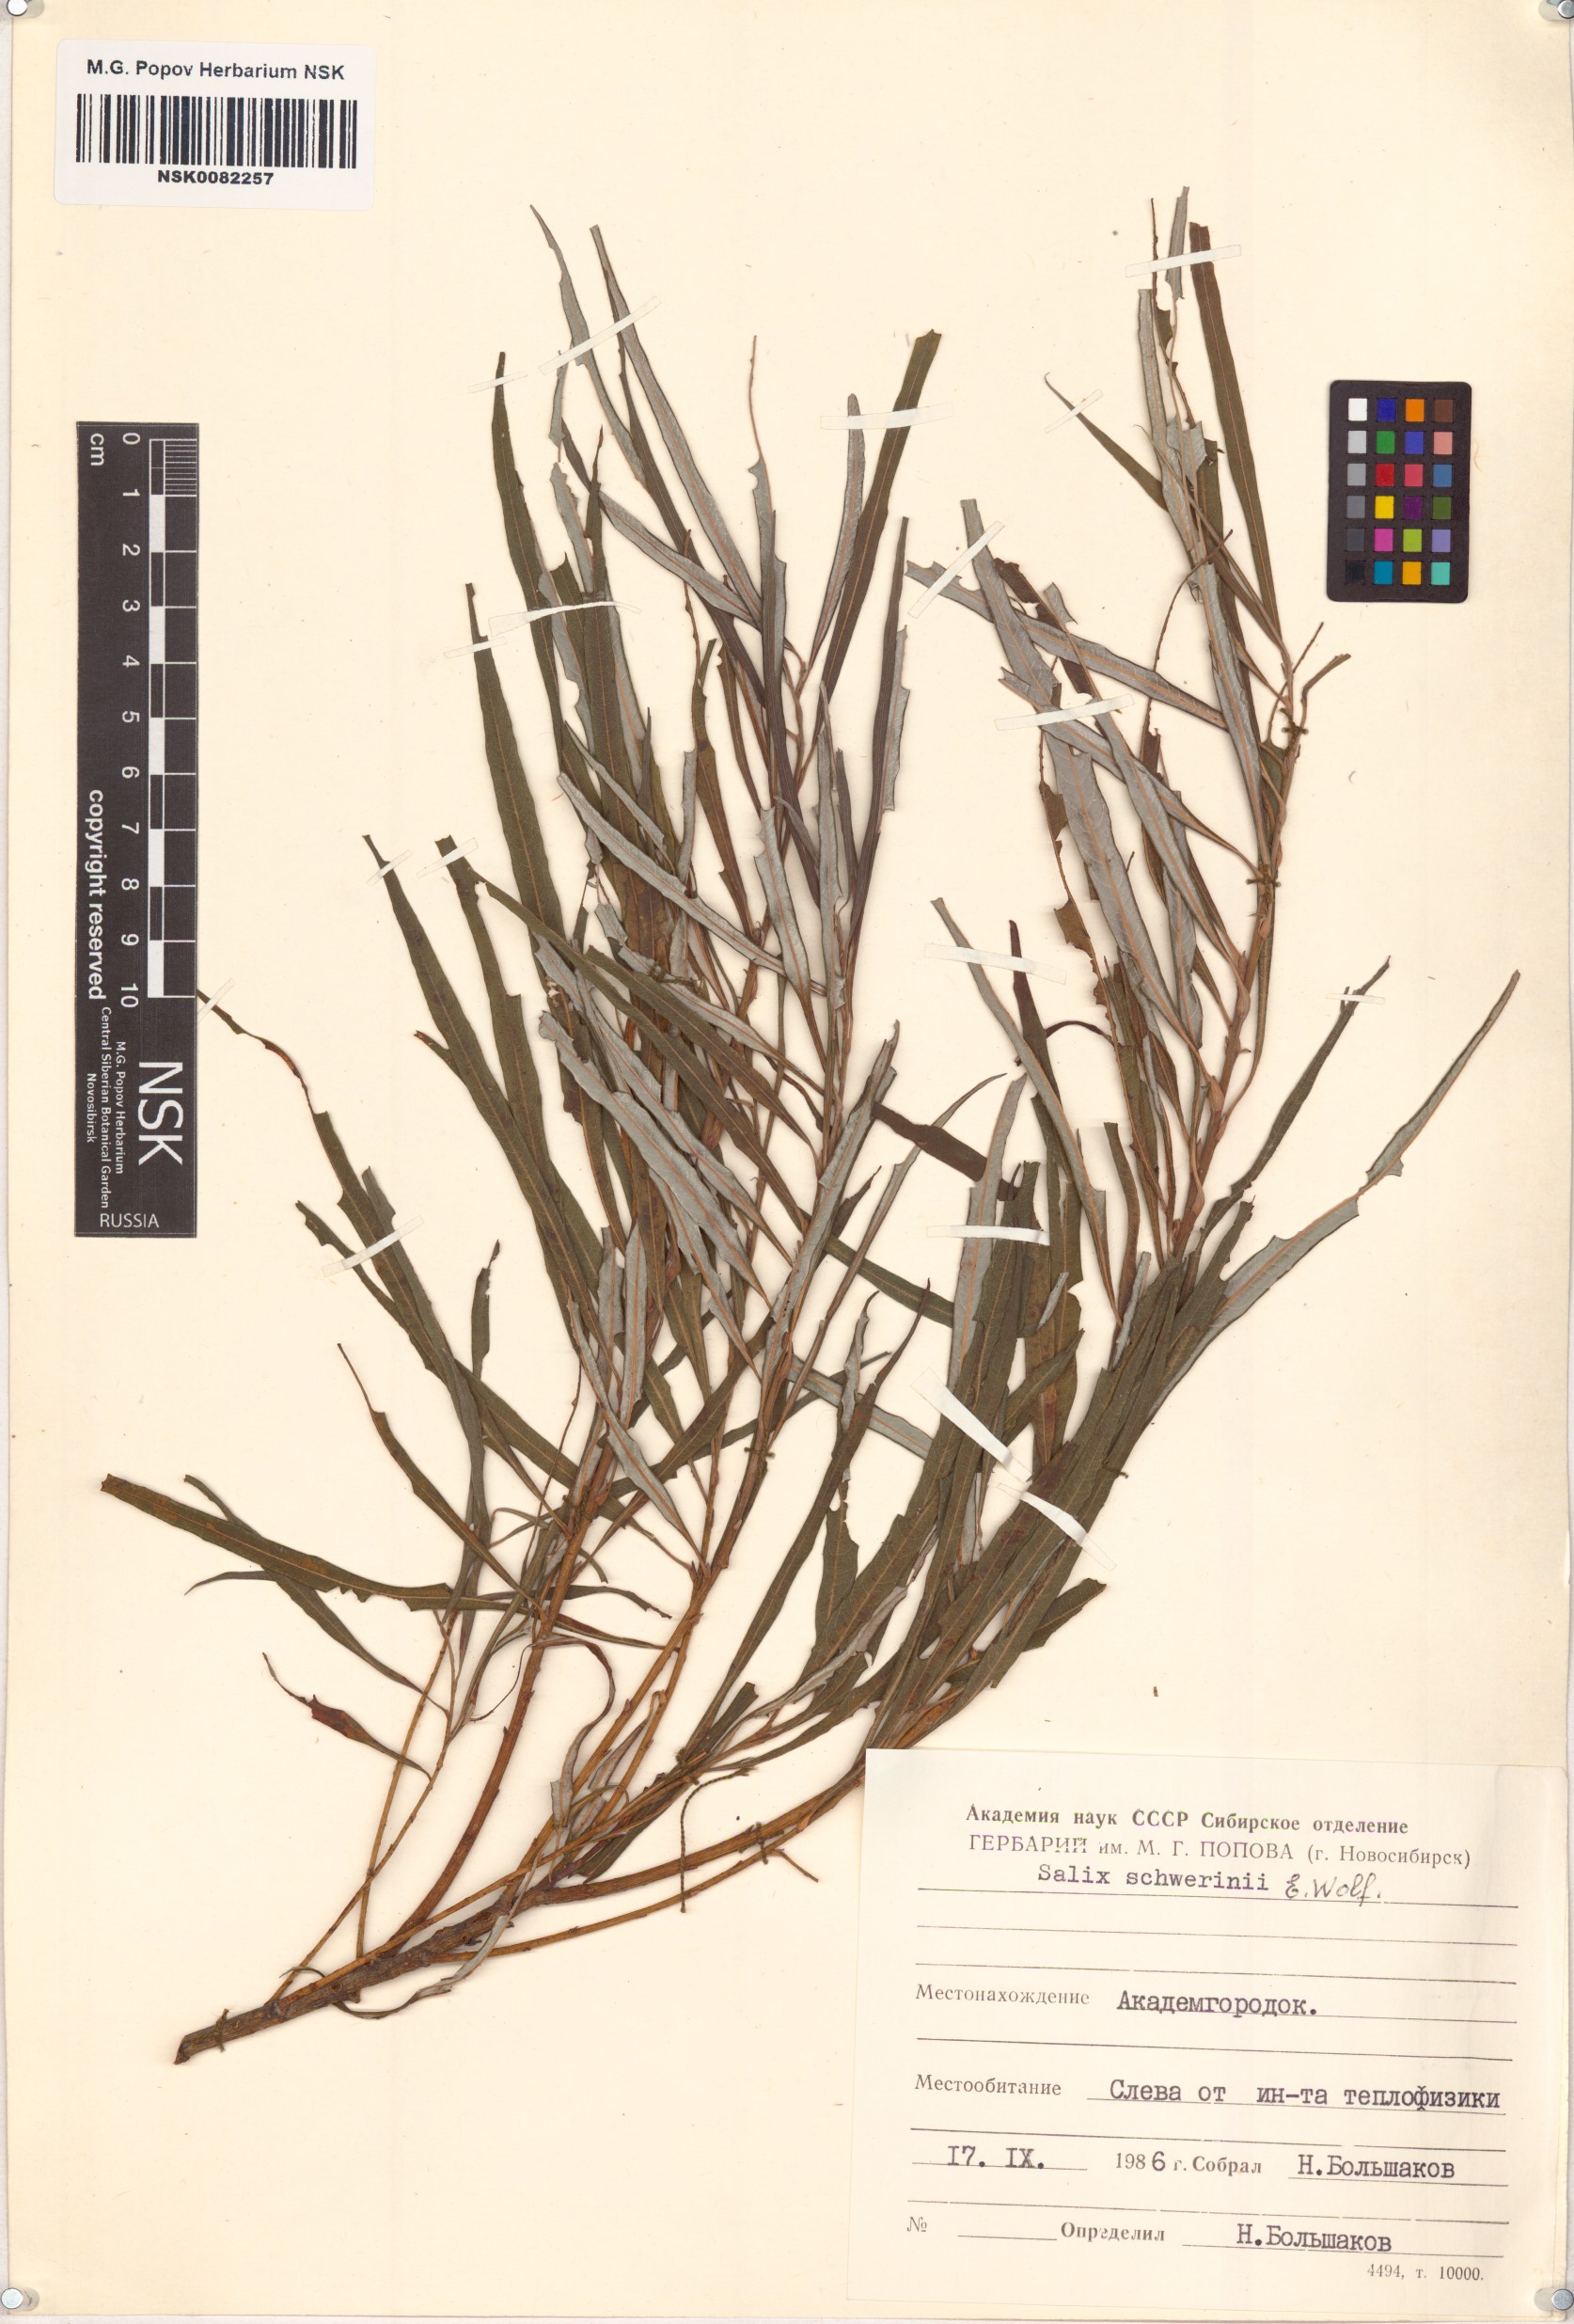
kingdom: Plantae
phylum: Tracheophyta
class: Magnoliopsida
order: Malpighiales
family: Salicaceae
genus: Salix
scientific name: Salix schwerinii
